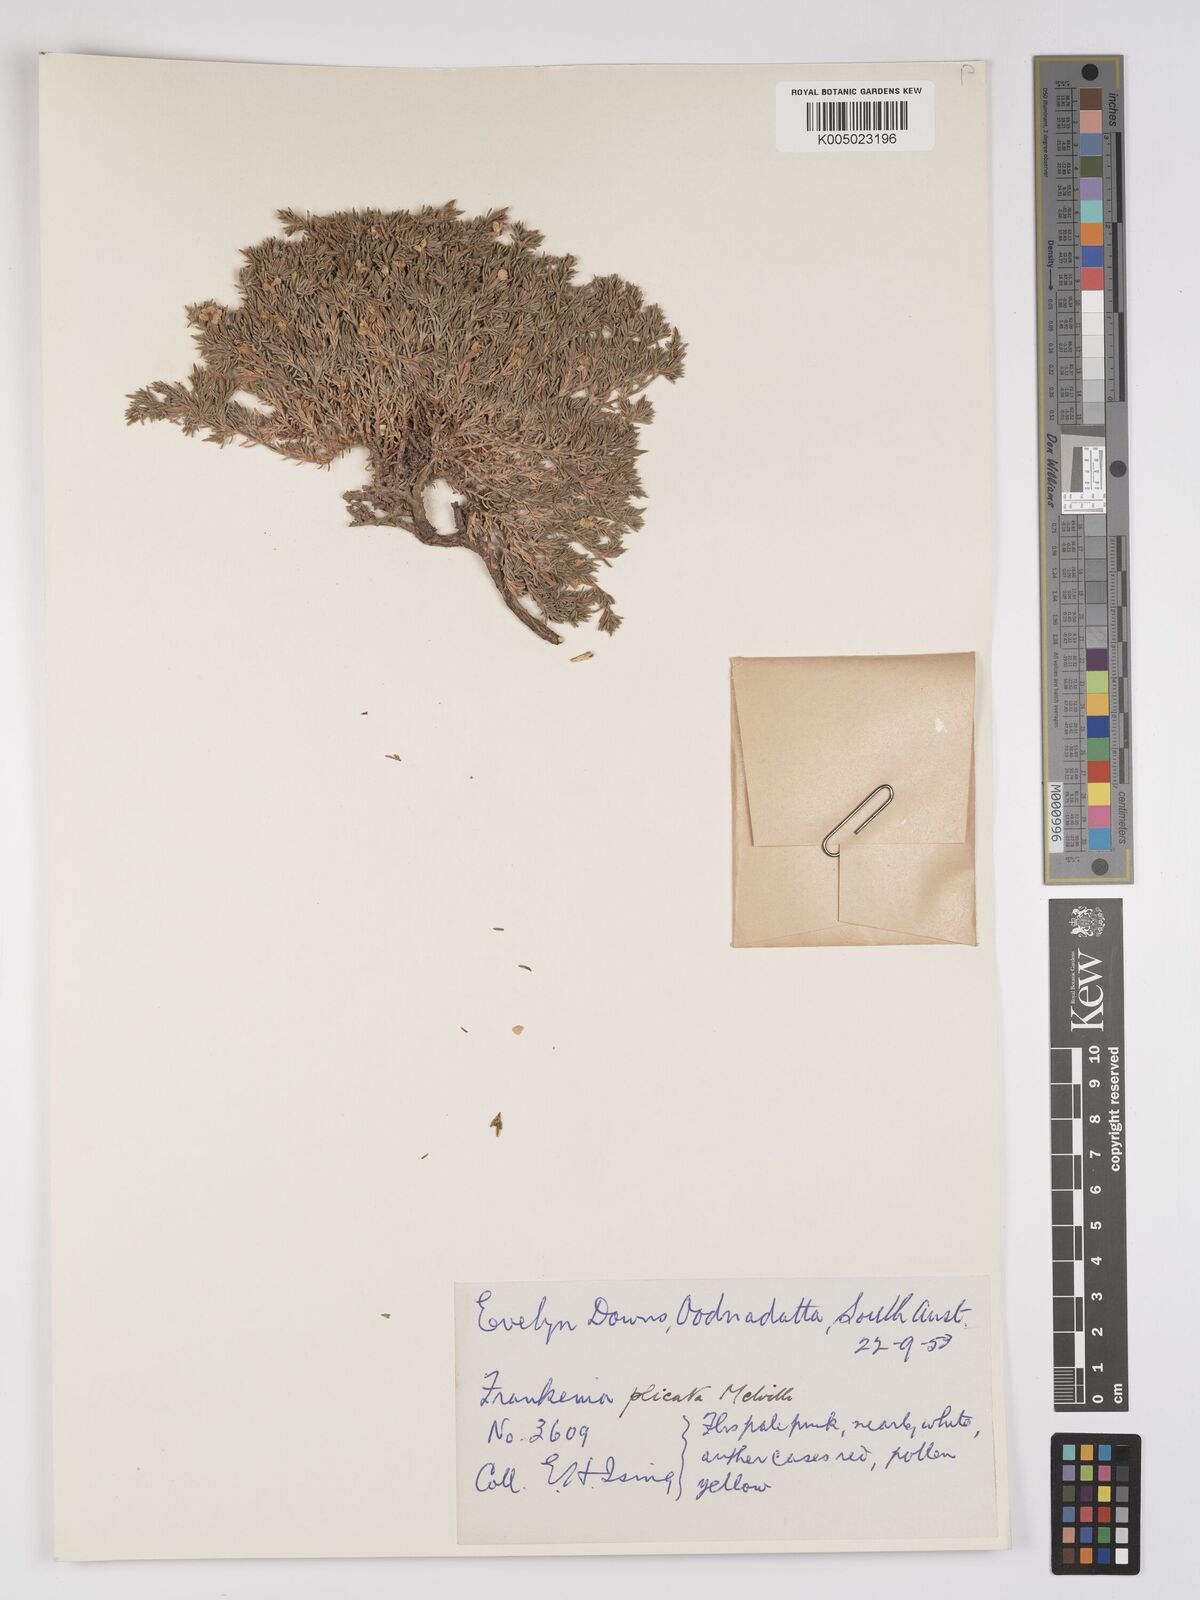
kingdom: Plantae
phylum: Tracheophyta
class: Magnoliopsida
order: Caryophyllales
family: Frankeniaceae
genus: Frankenia
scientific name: Frankenia plicata
